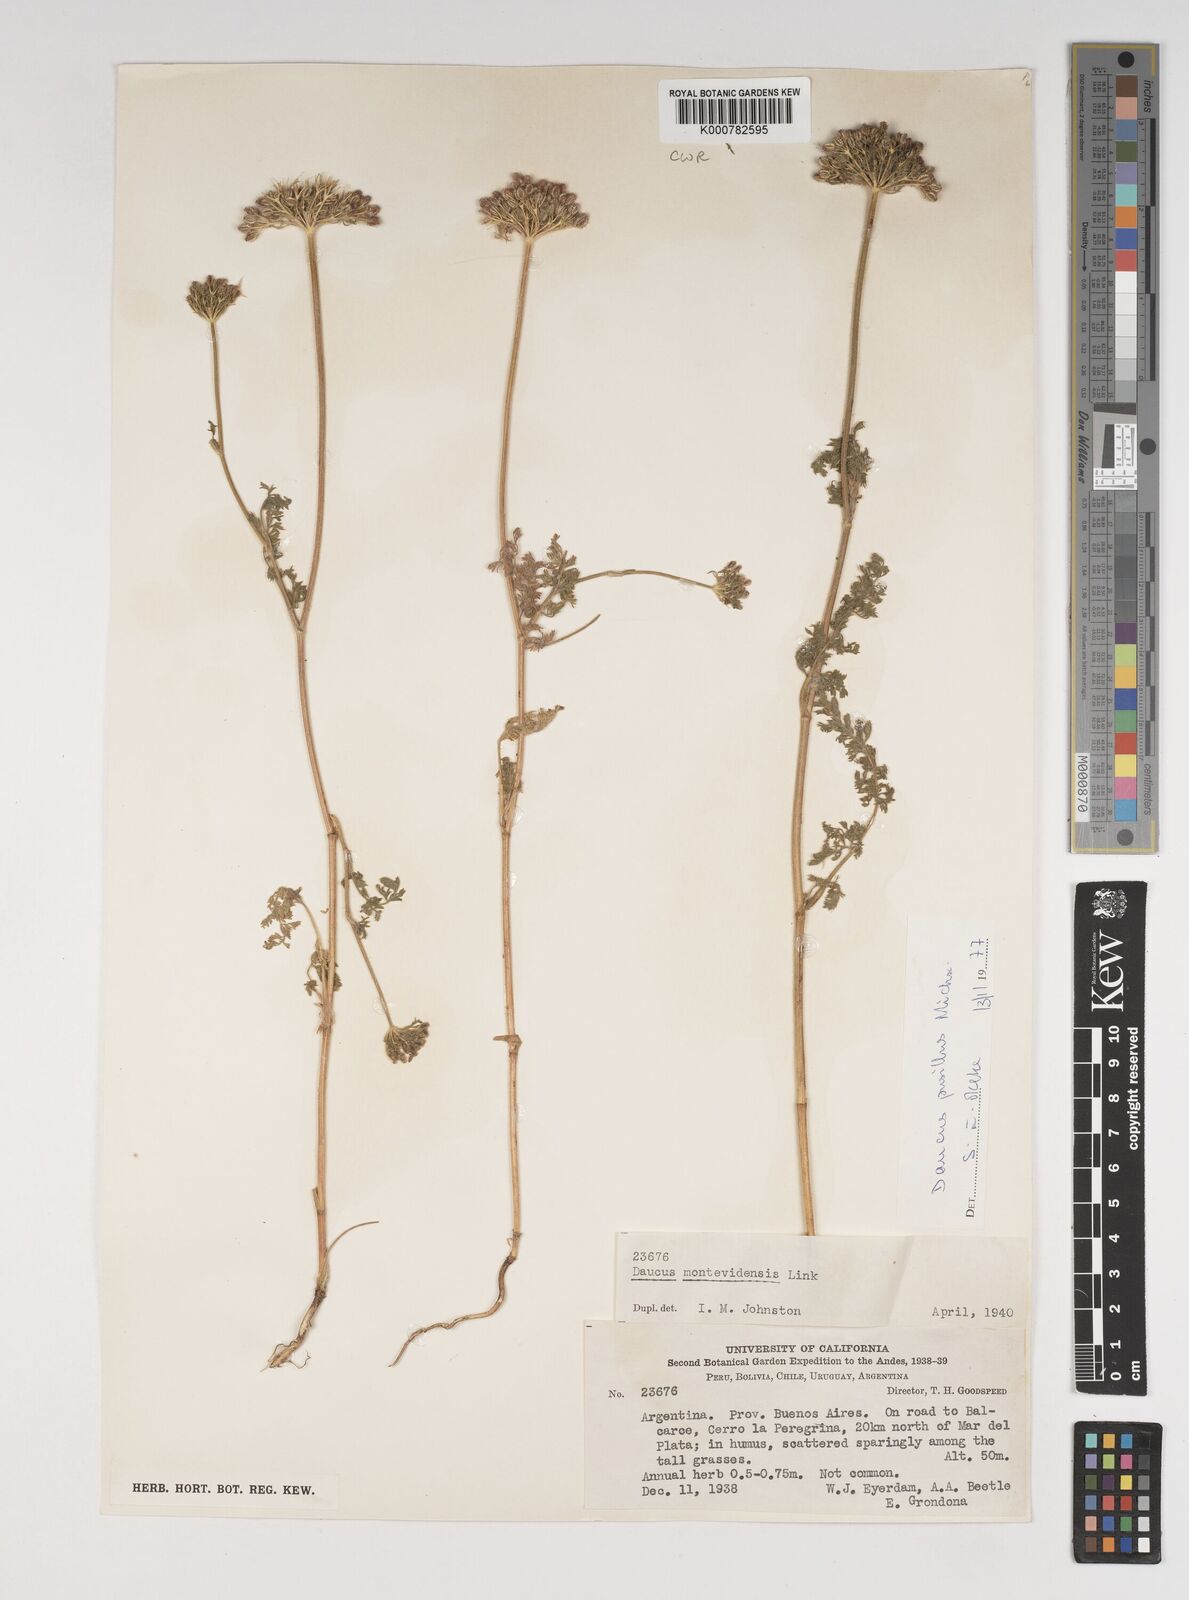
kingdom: Plantae
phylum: Tracheophyta
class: Magnoliopsida
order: Apiales
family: Apiaceae
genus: Daucus
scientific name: Daucus pusillus
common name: Southwest wild carrot
